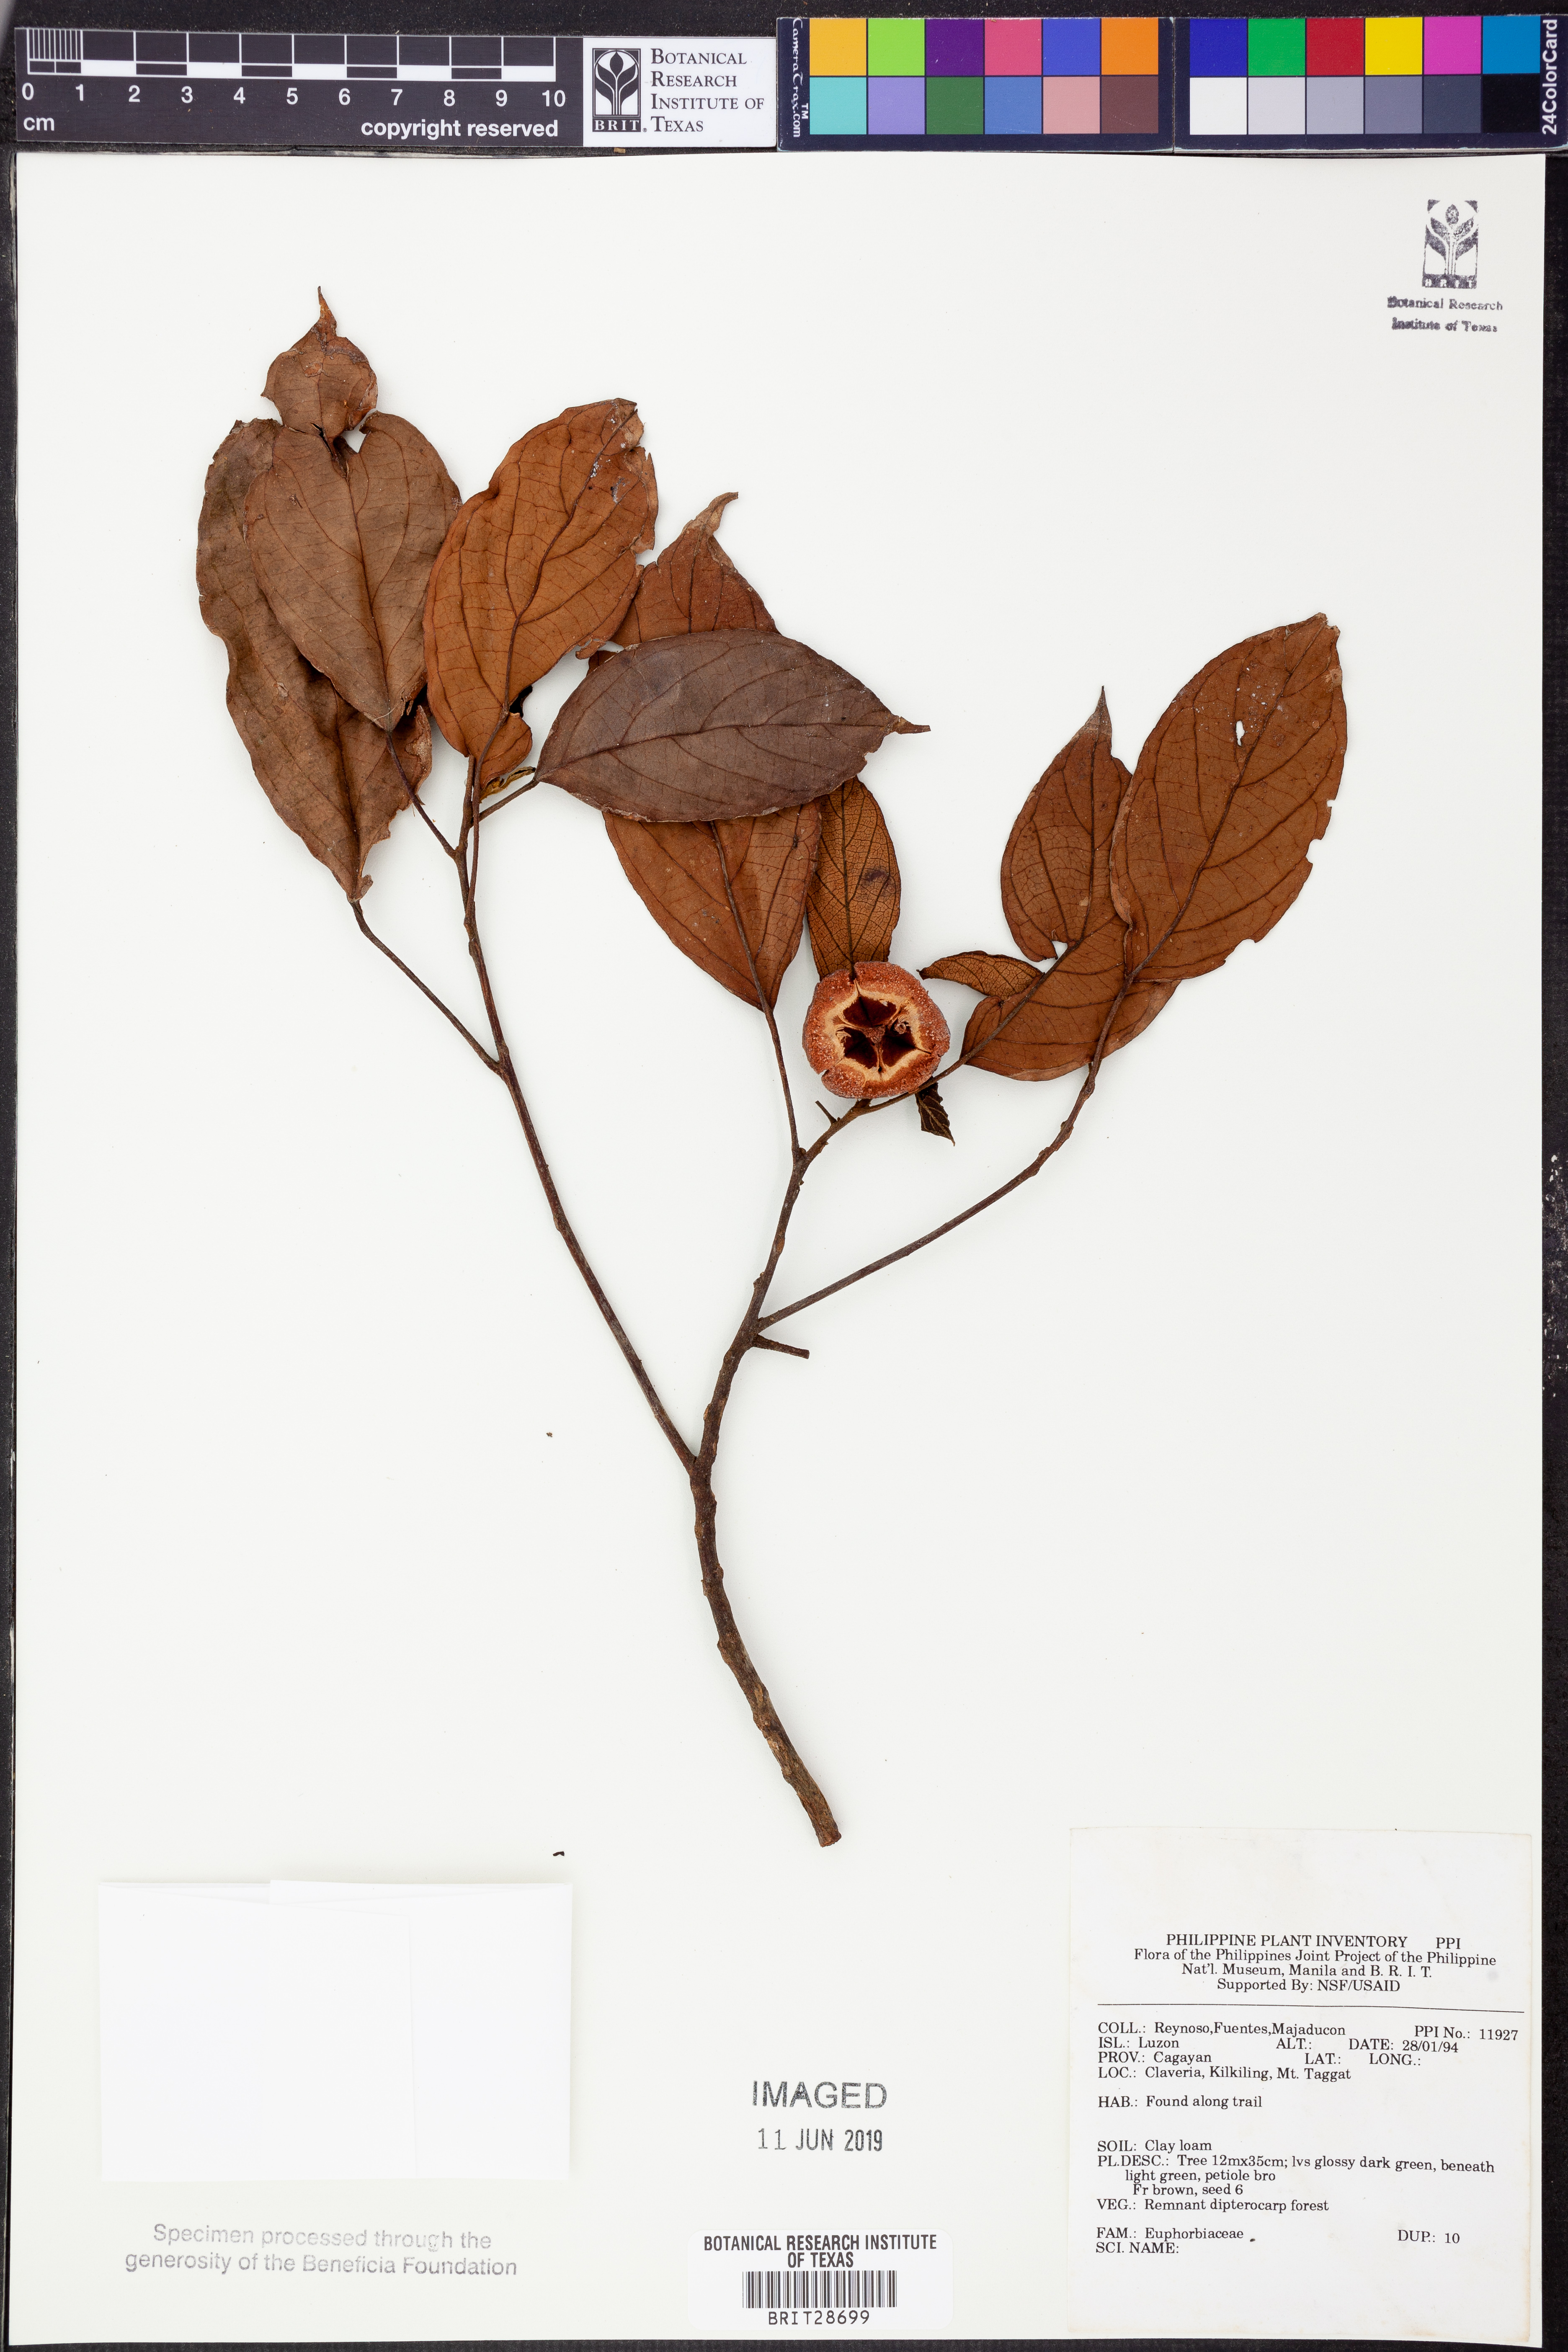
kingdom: Plantae
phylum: Tracheophyta
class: Magnoliopsida
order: Malpighiales
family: Euphorbiaceae
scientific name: Euphorbiaceae
